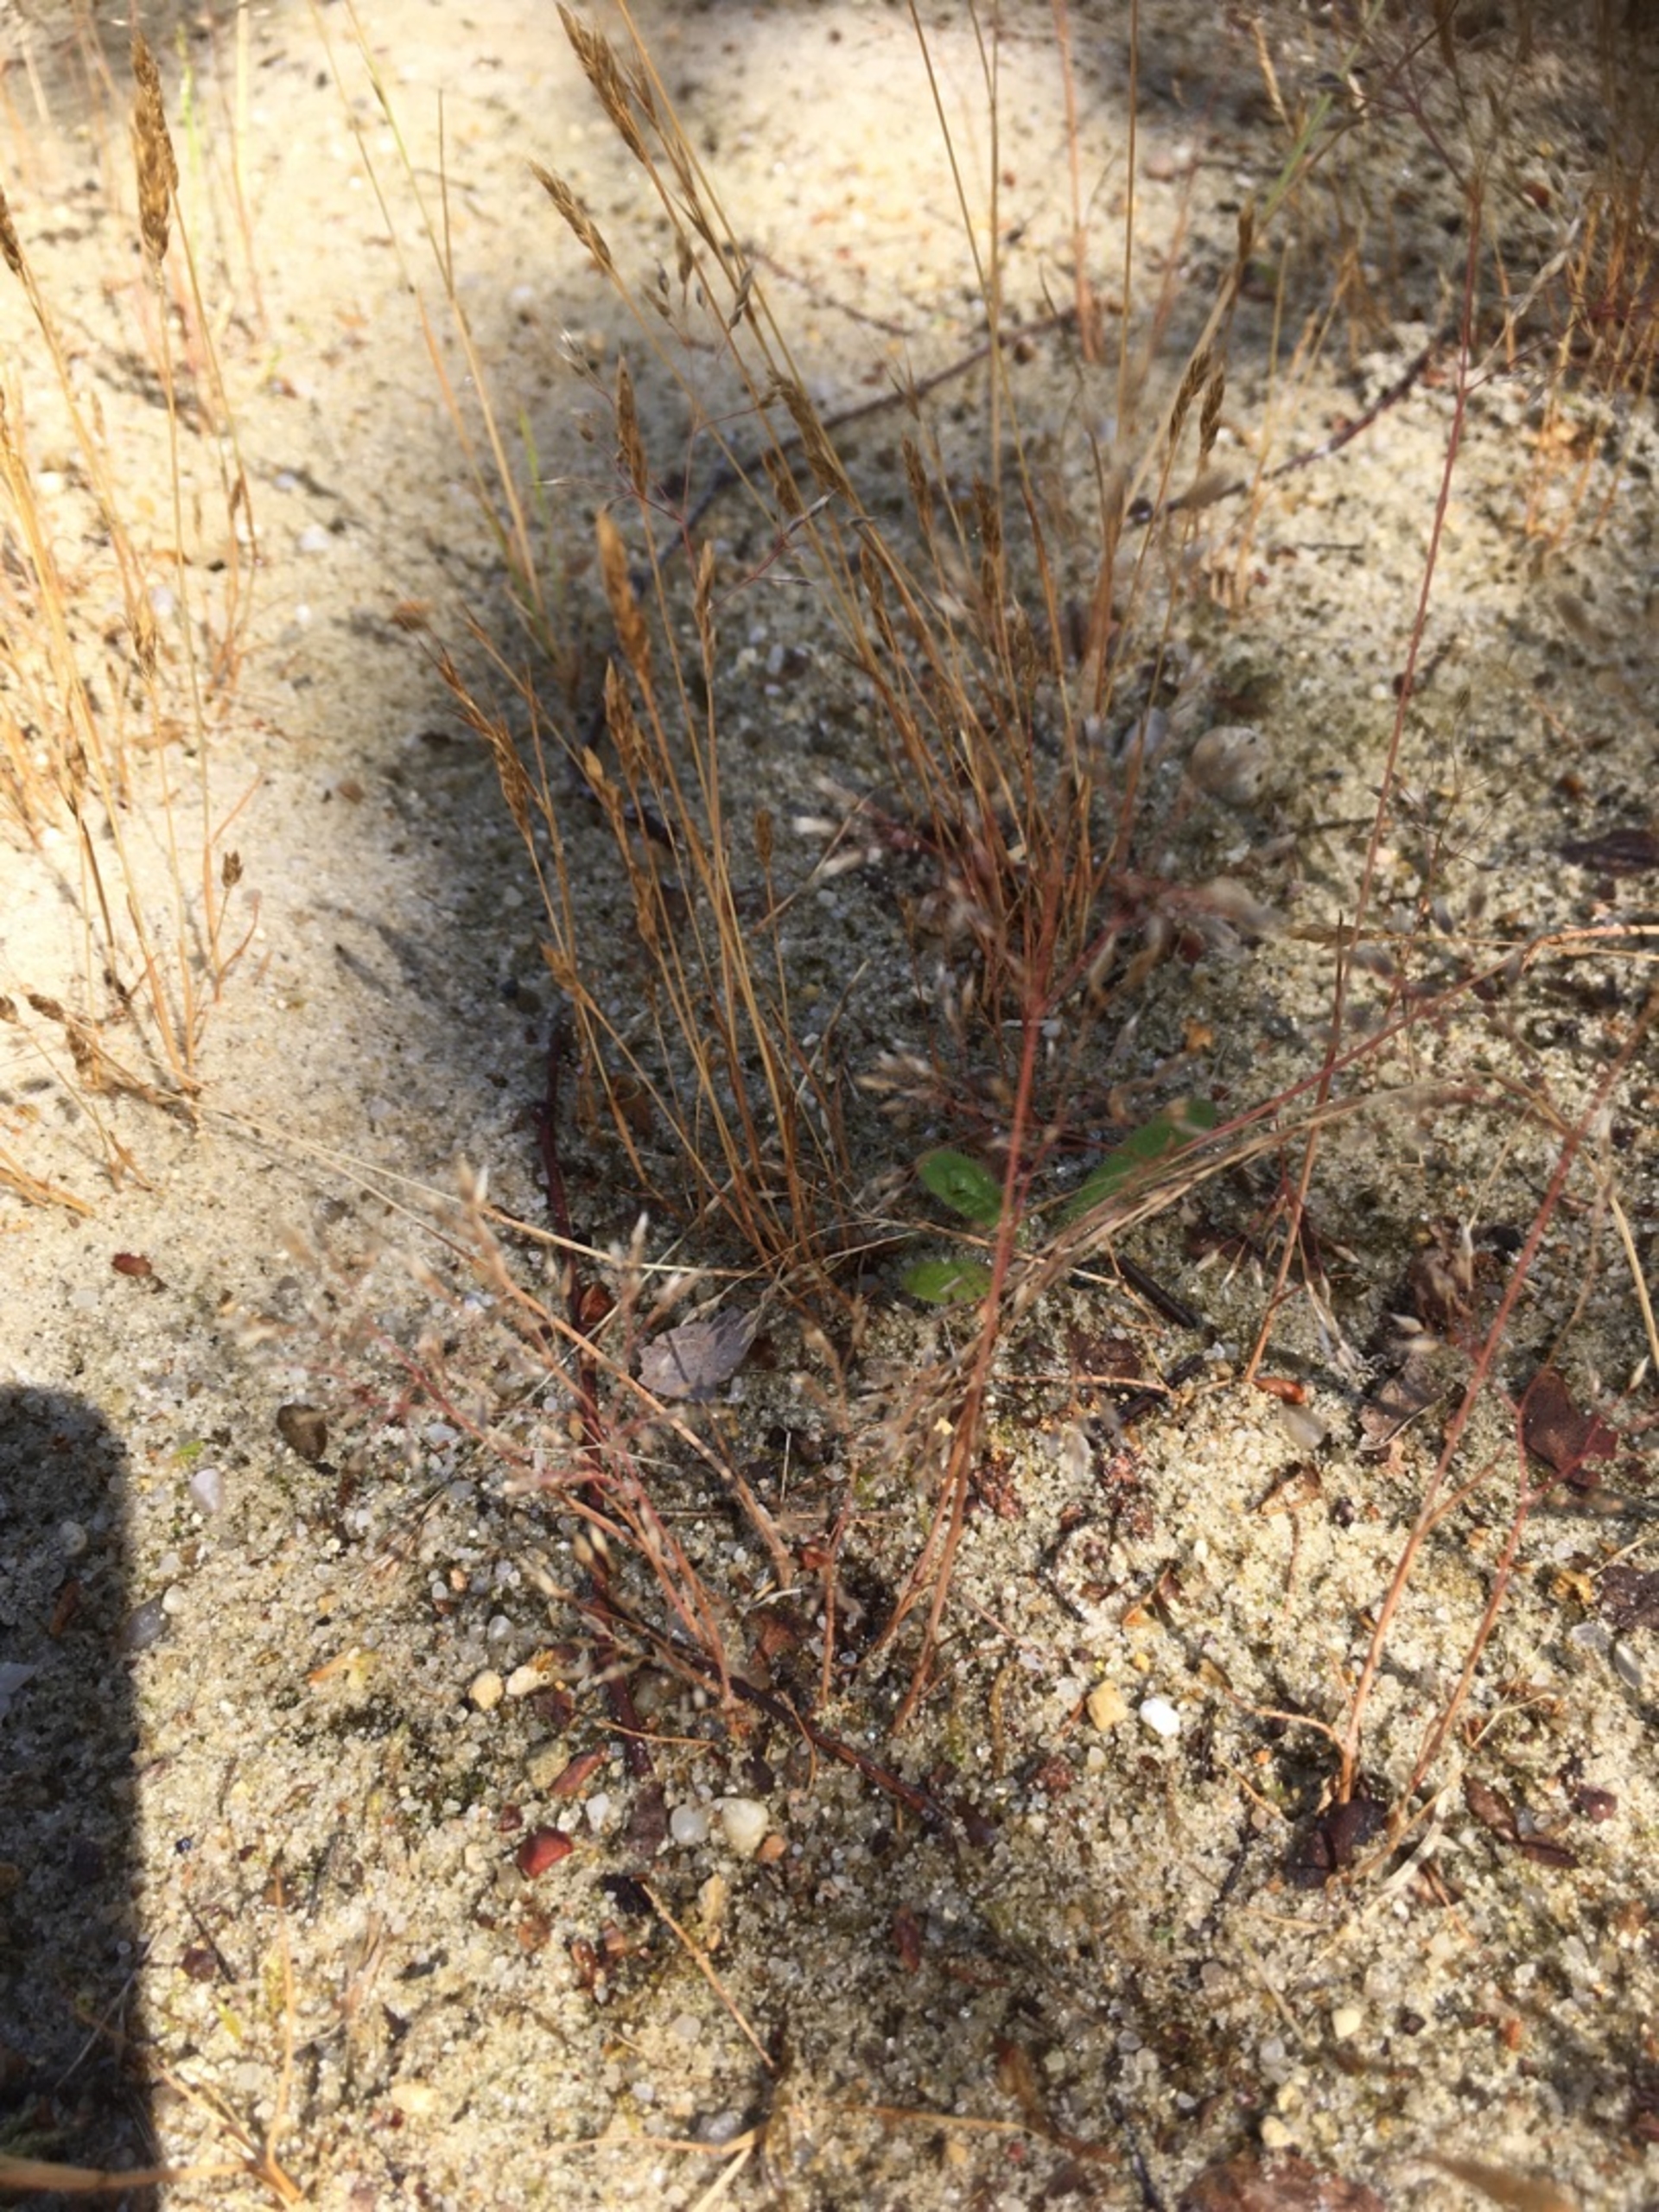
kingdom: Plantae
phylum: Tracheophyta
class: Liliopsida
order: Poales
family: Poaceae
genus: Aira
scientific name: Aira caryophyllea
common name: Udspærret dværgbunke
